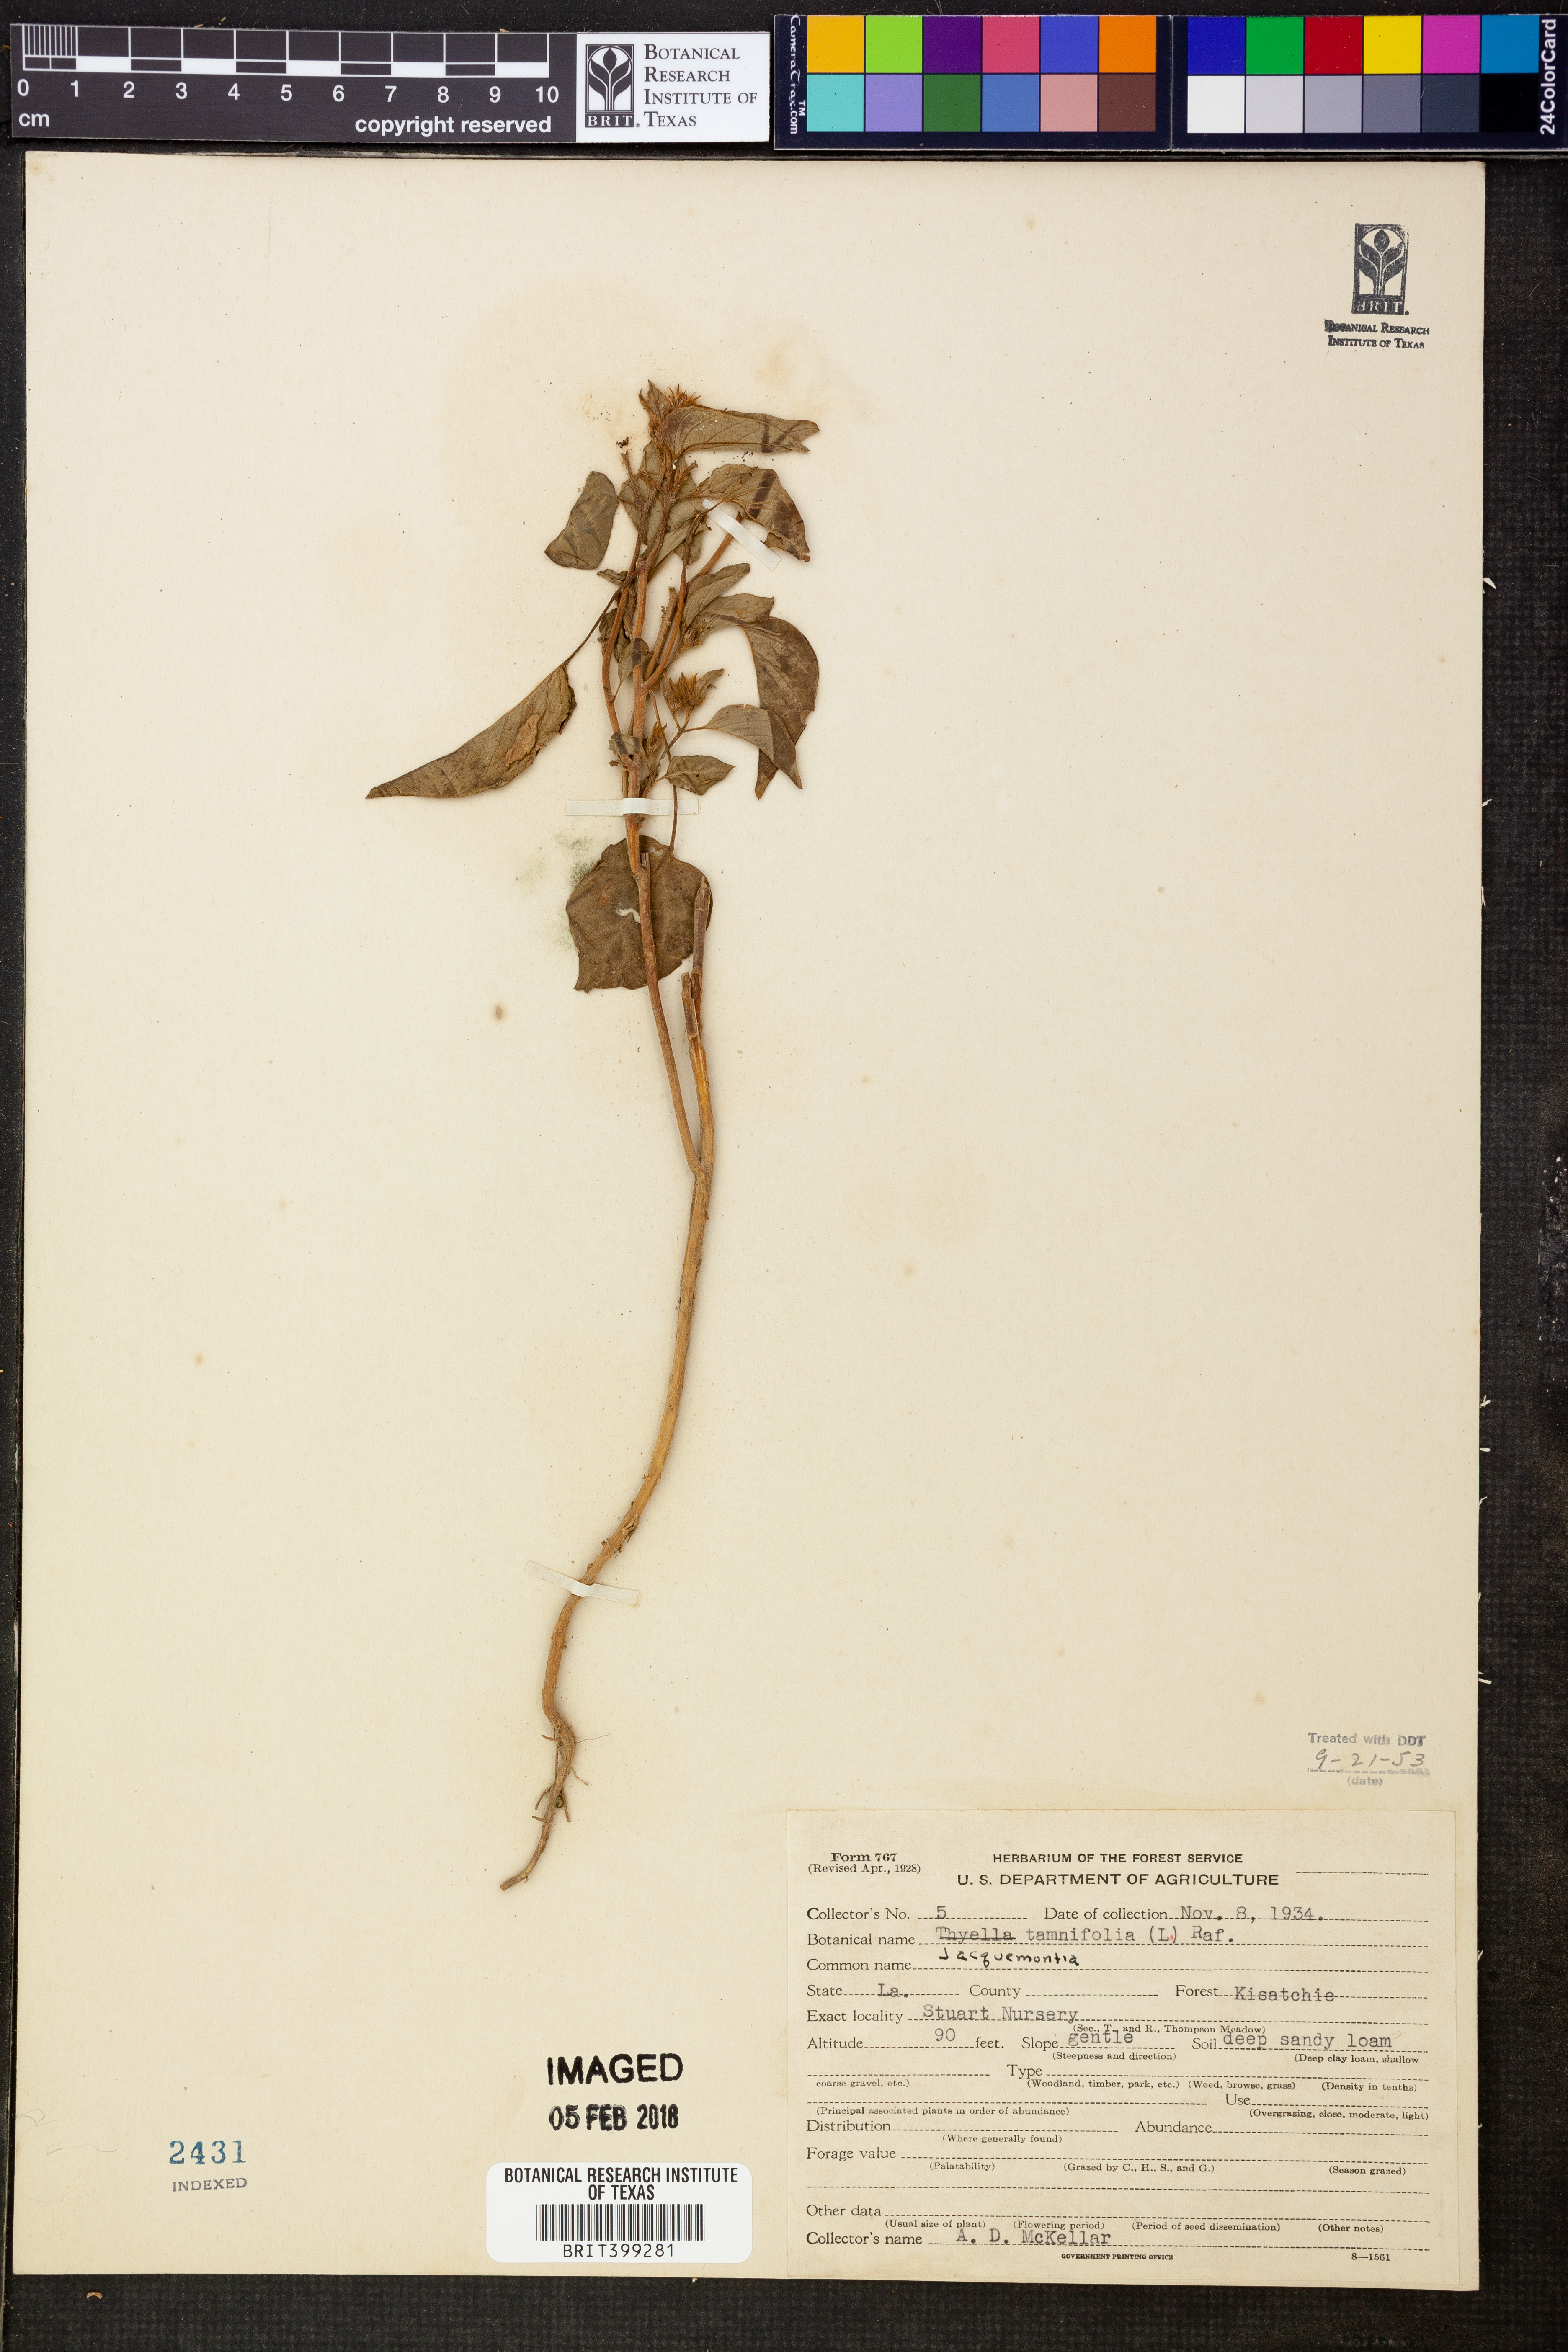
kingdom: Plantae
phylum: Tracheophyta
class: Magnoliopsida
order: Solanales
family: Convolvulaceae
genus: Jacquemontia
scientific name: Jacquemontia tamnifolia
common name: Hairy clustervine
